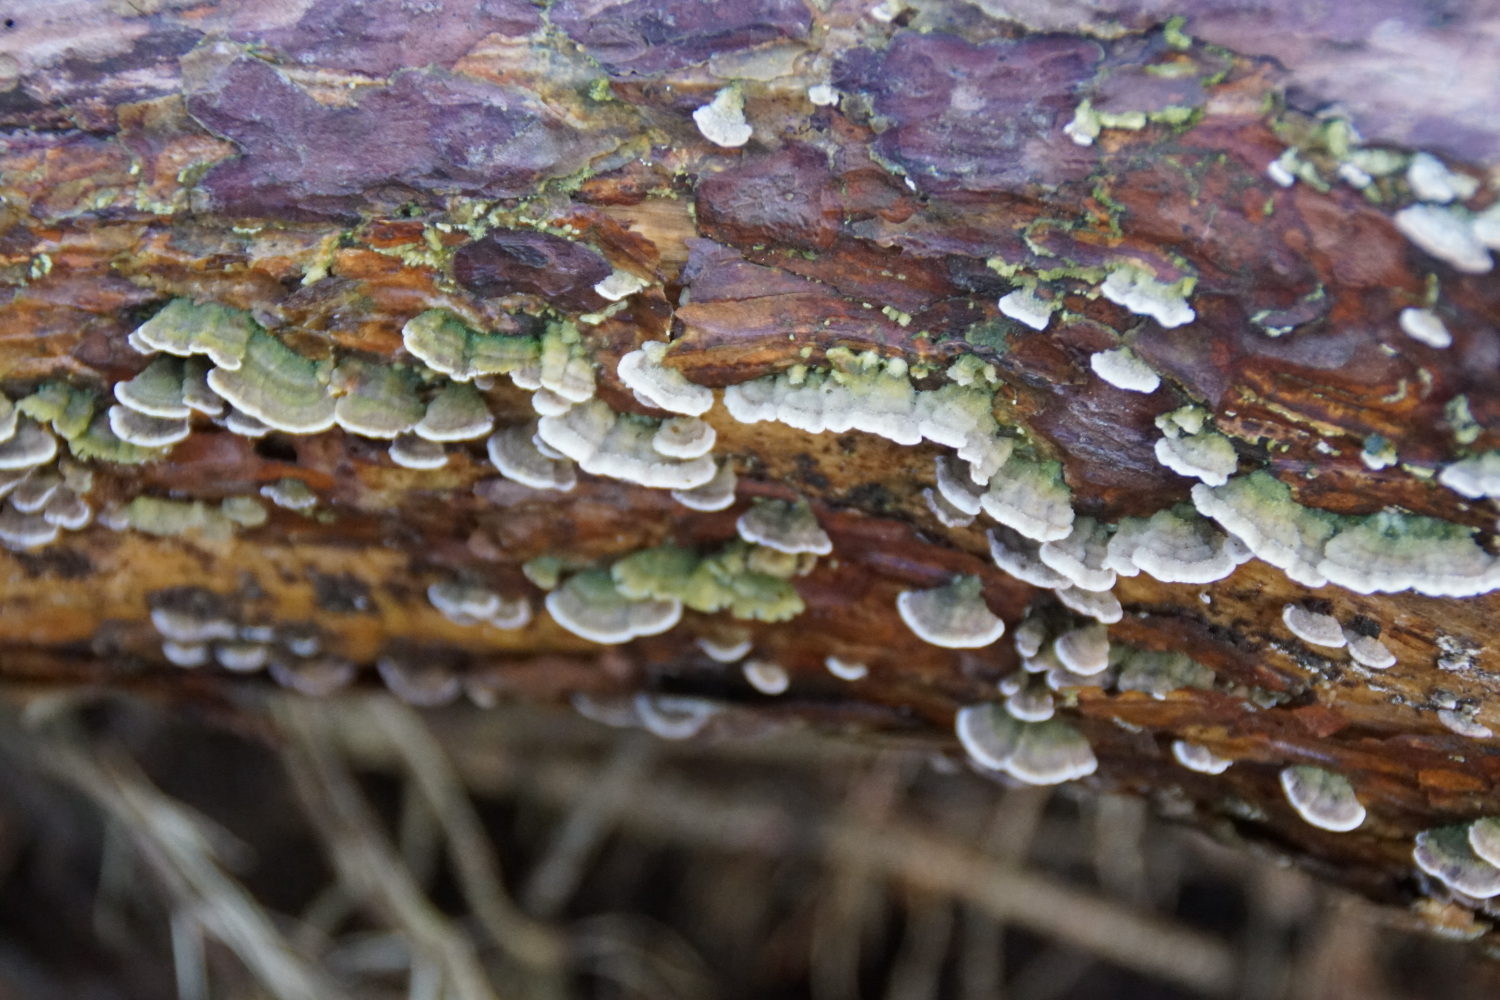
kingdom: Fungi
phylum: Basidiomycota
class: Agaricomycetes
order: Hymenochaetales
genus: Trichaptum
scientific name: Trichaptum abietinum
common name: almindelig violporesvamp
